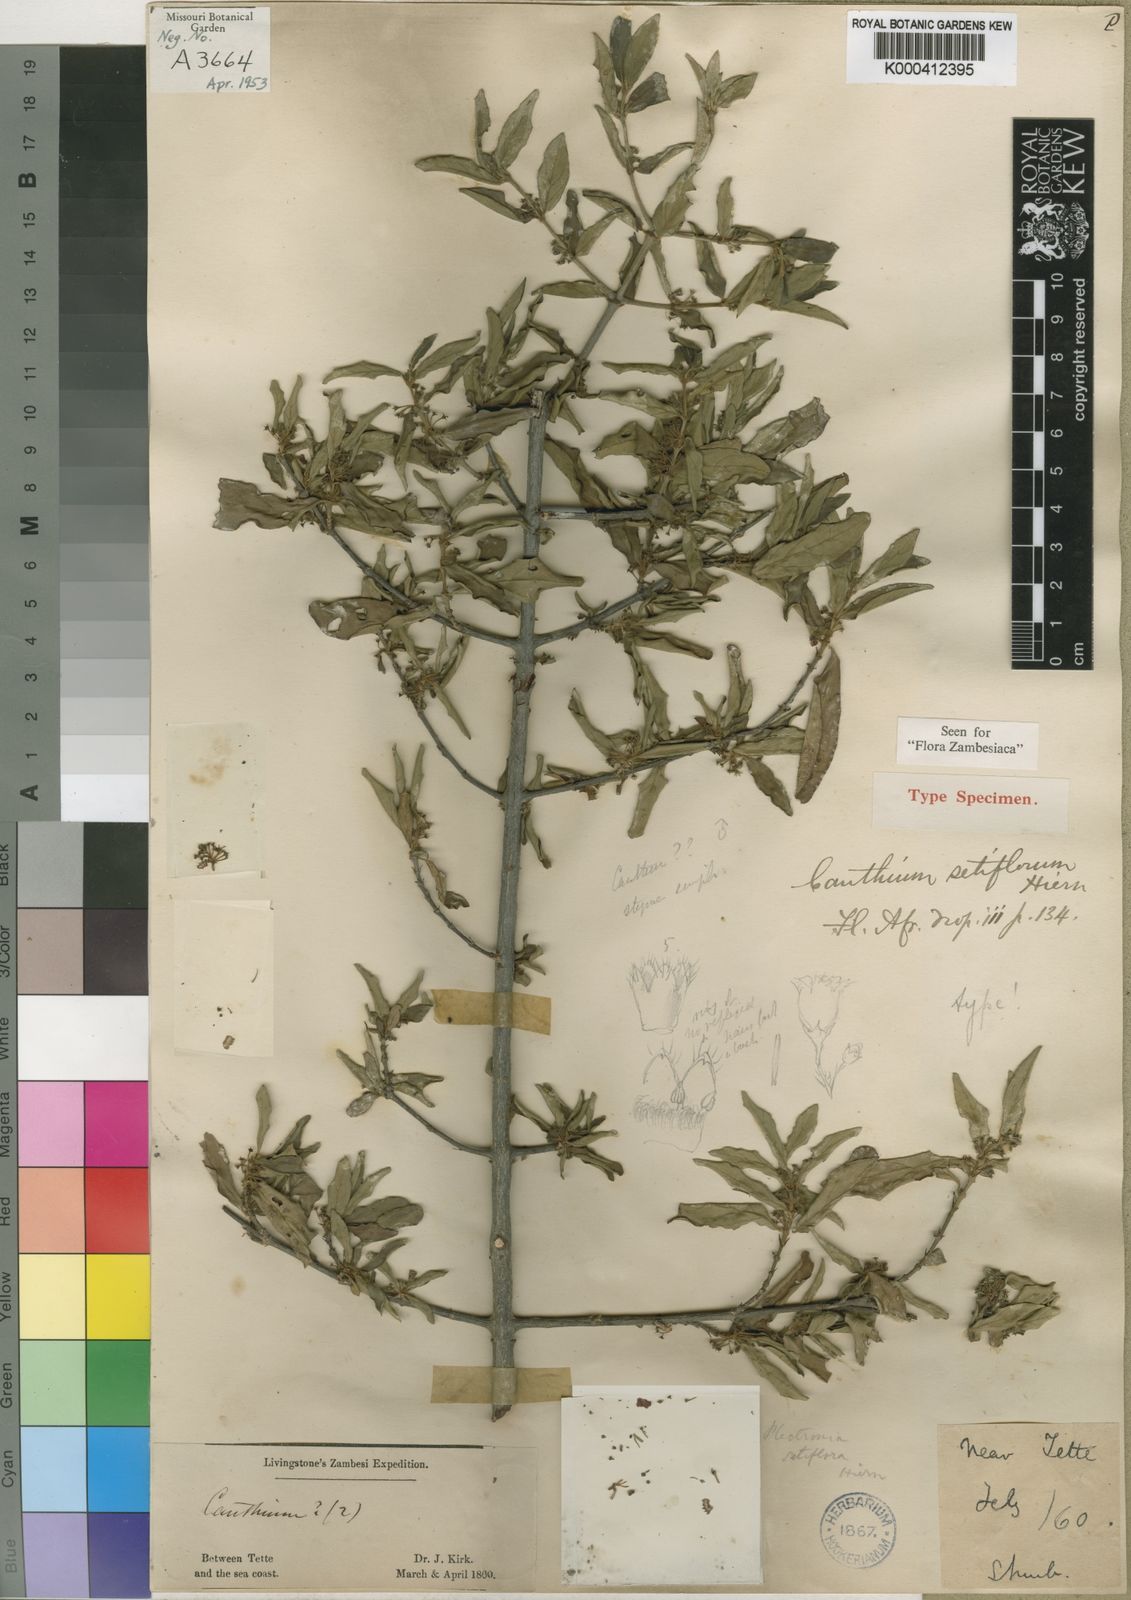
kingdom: Plantae
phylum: Tracheophyta
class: Magnoliopsida
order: Gentianales
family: Rubiaceae
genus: Bullockia
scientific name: Bullockia setiflora
